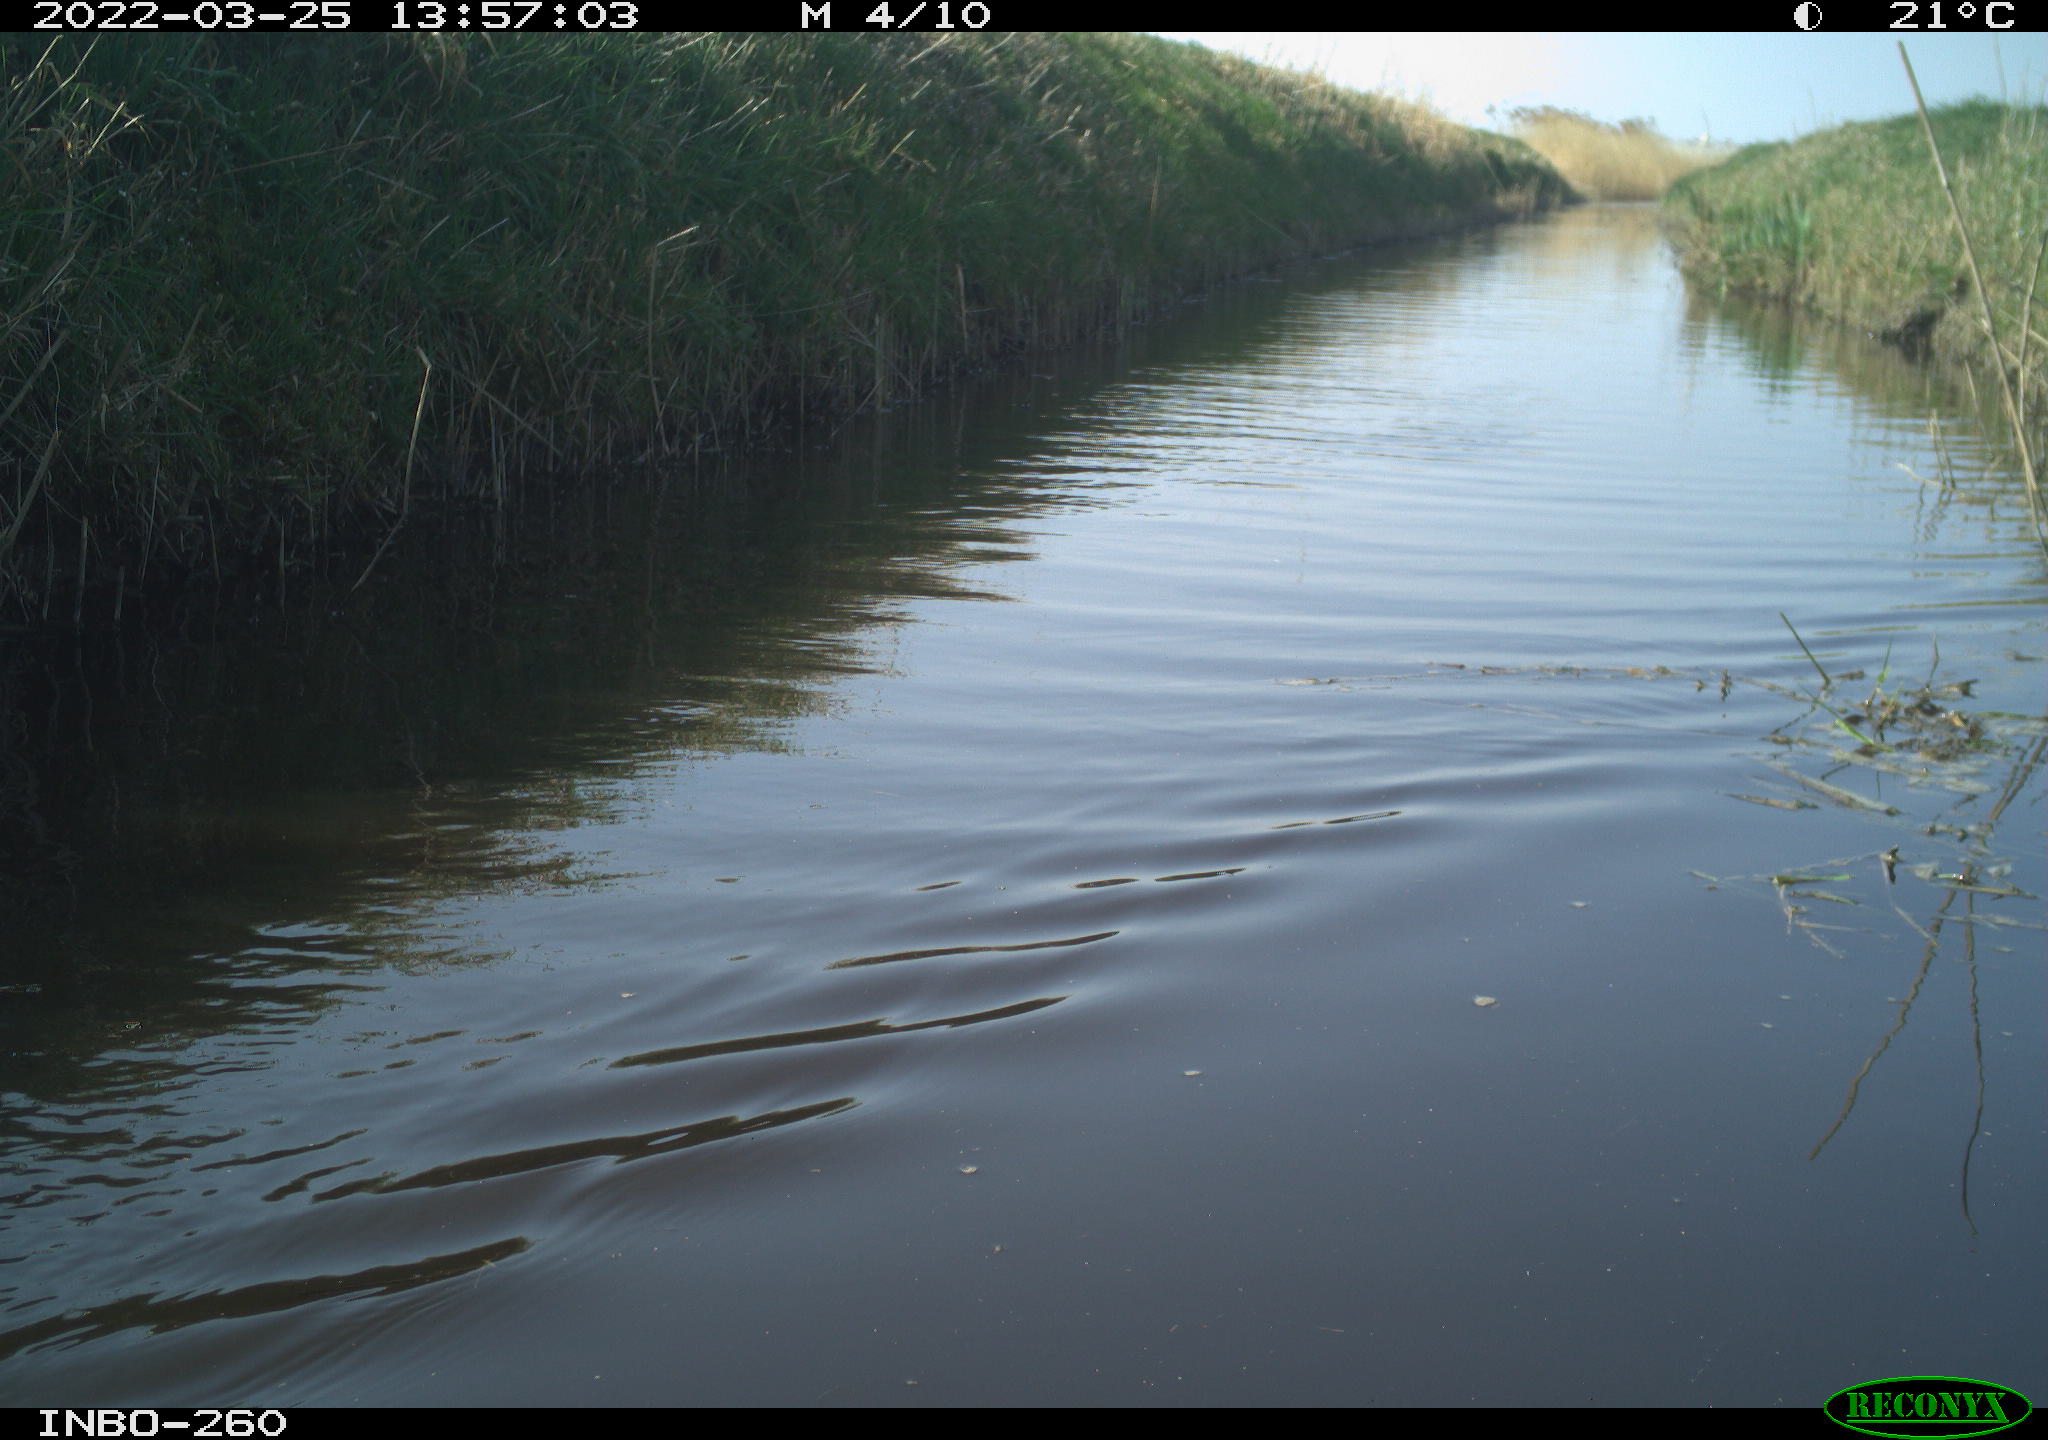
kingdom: Animalia
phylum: Chordata
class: Aves
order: Gruiformes
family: Rallidae
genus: Fulica
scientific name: Fulica atra
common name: Eurasian coot
